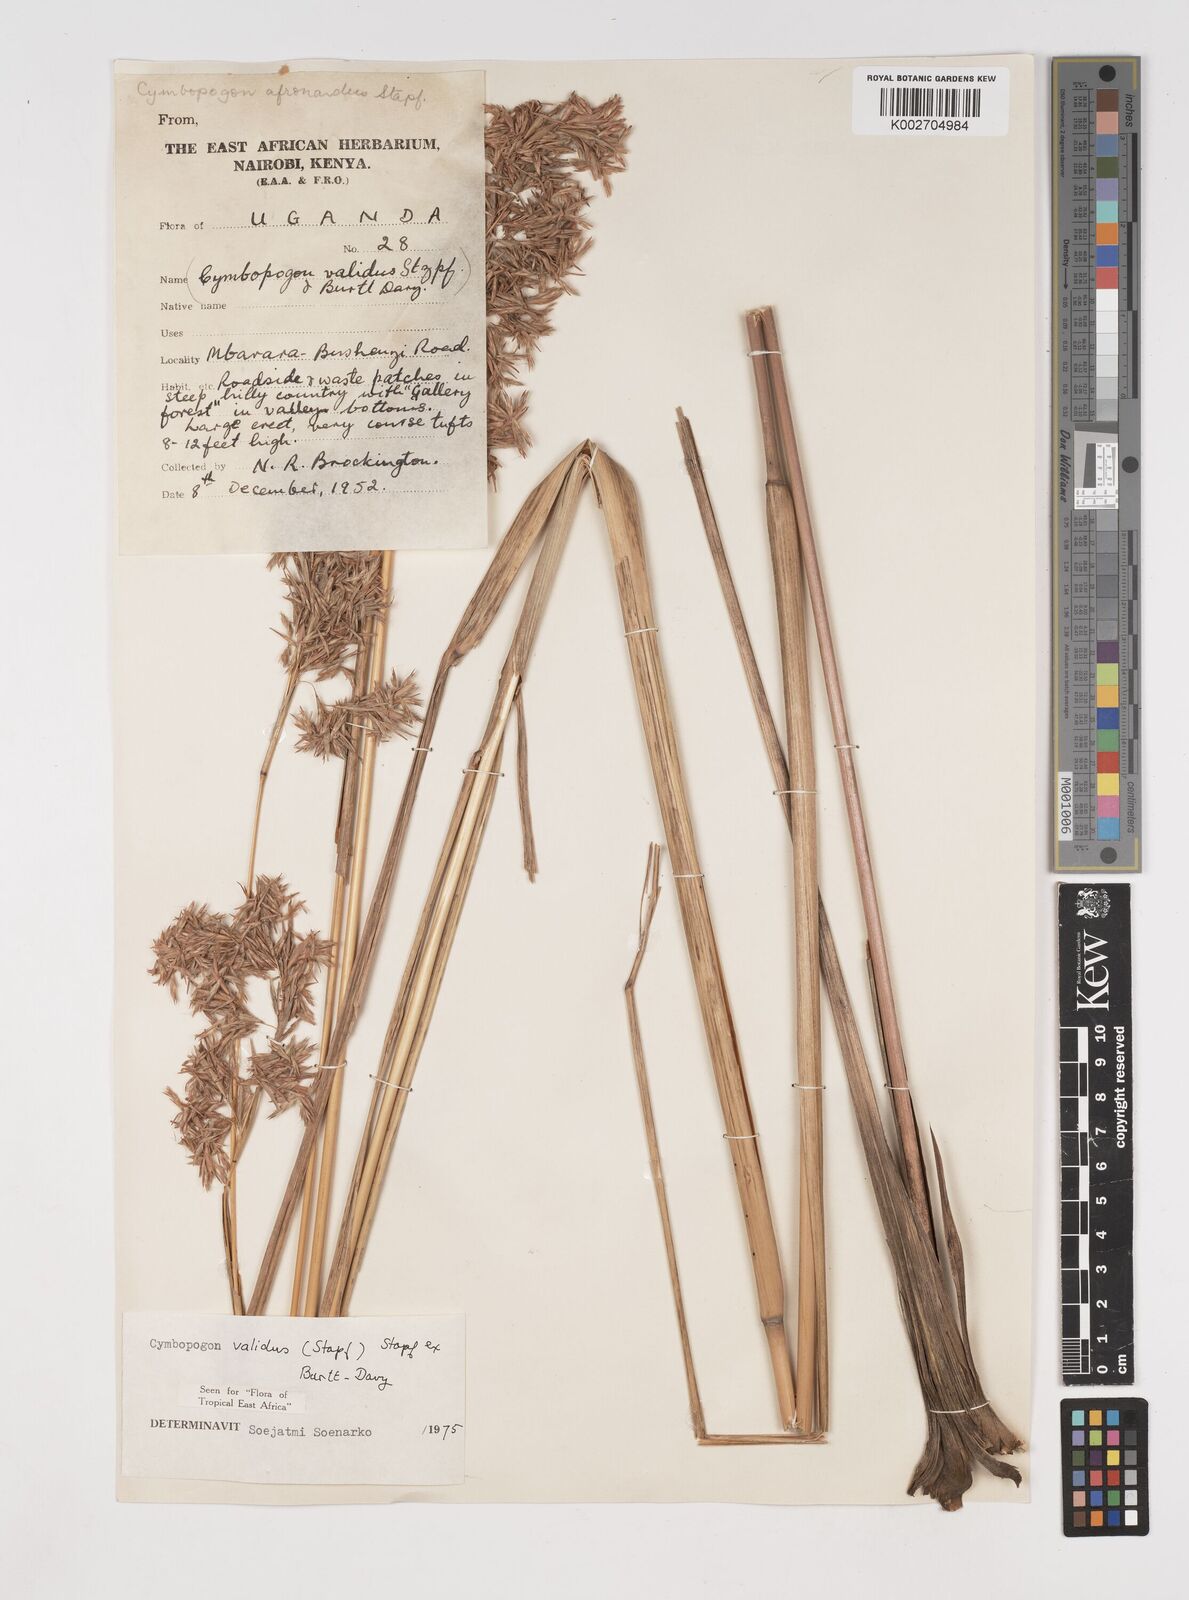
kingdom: Plantae
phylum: Tracheophyta
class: Liliopsida
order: Poales
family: Poaceae
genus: Cymbopogon
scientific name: Cymbopogon nardus
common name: Giant turpentine grass
